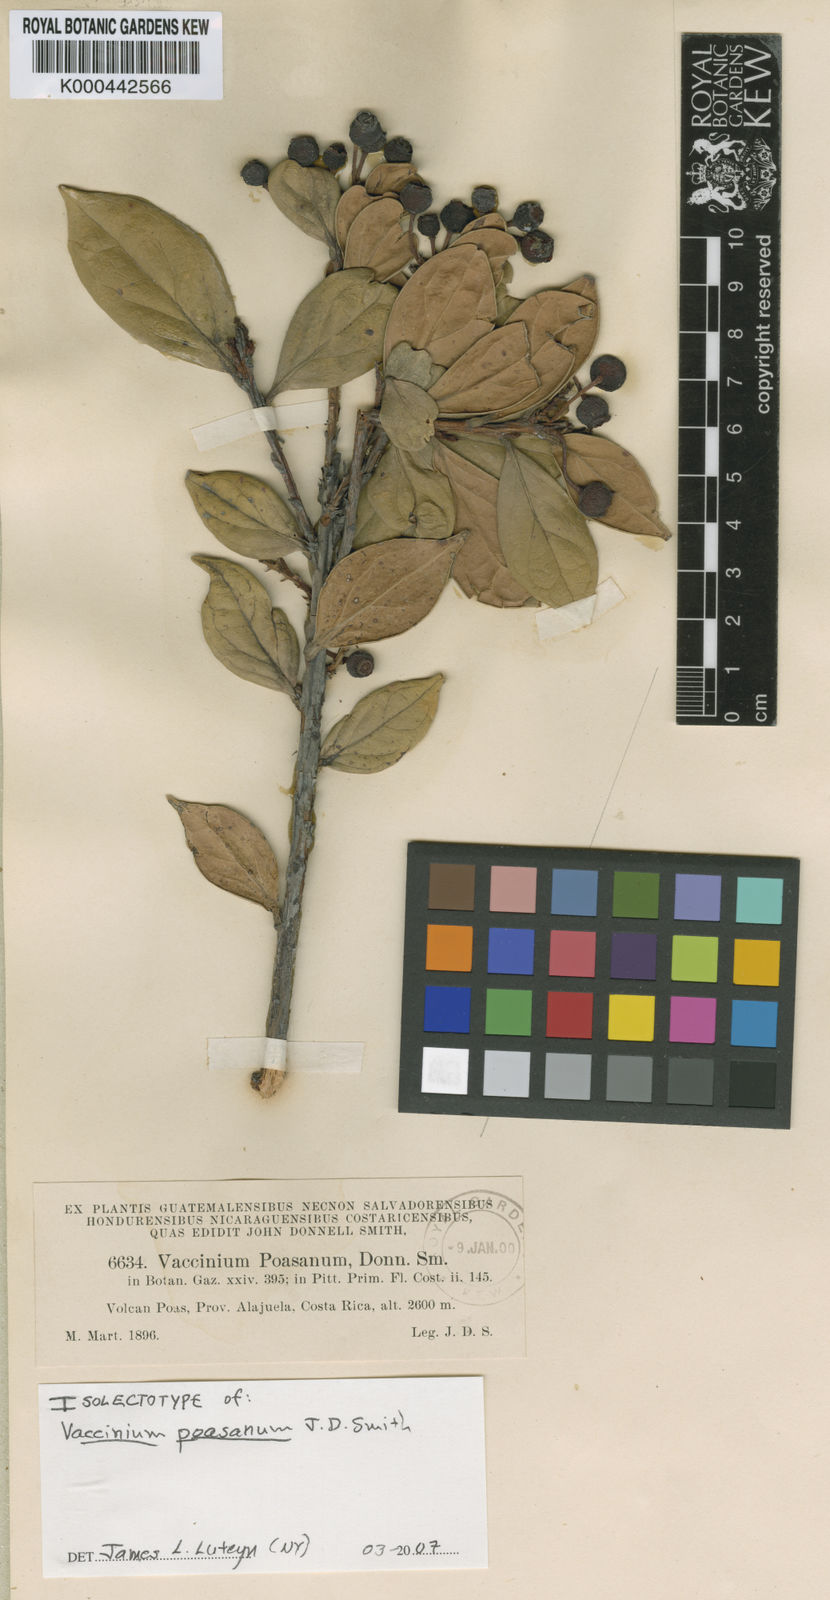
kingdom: Plantae
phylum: Tracheophyta
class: Magnoliopsida
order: Ericales
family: Ericaceae
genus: Symphysia
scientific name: Symphysia poasana
